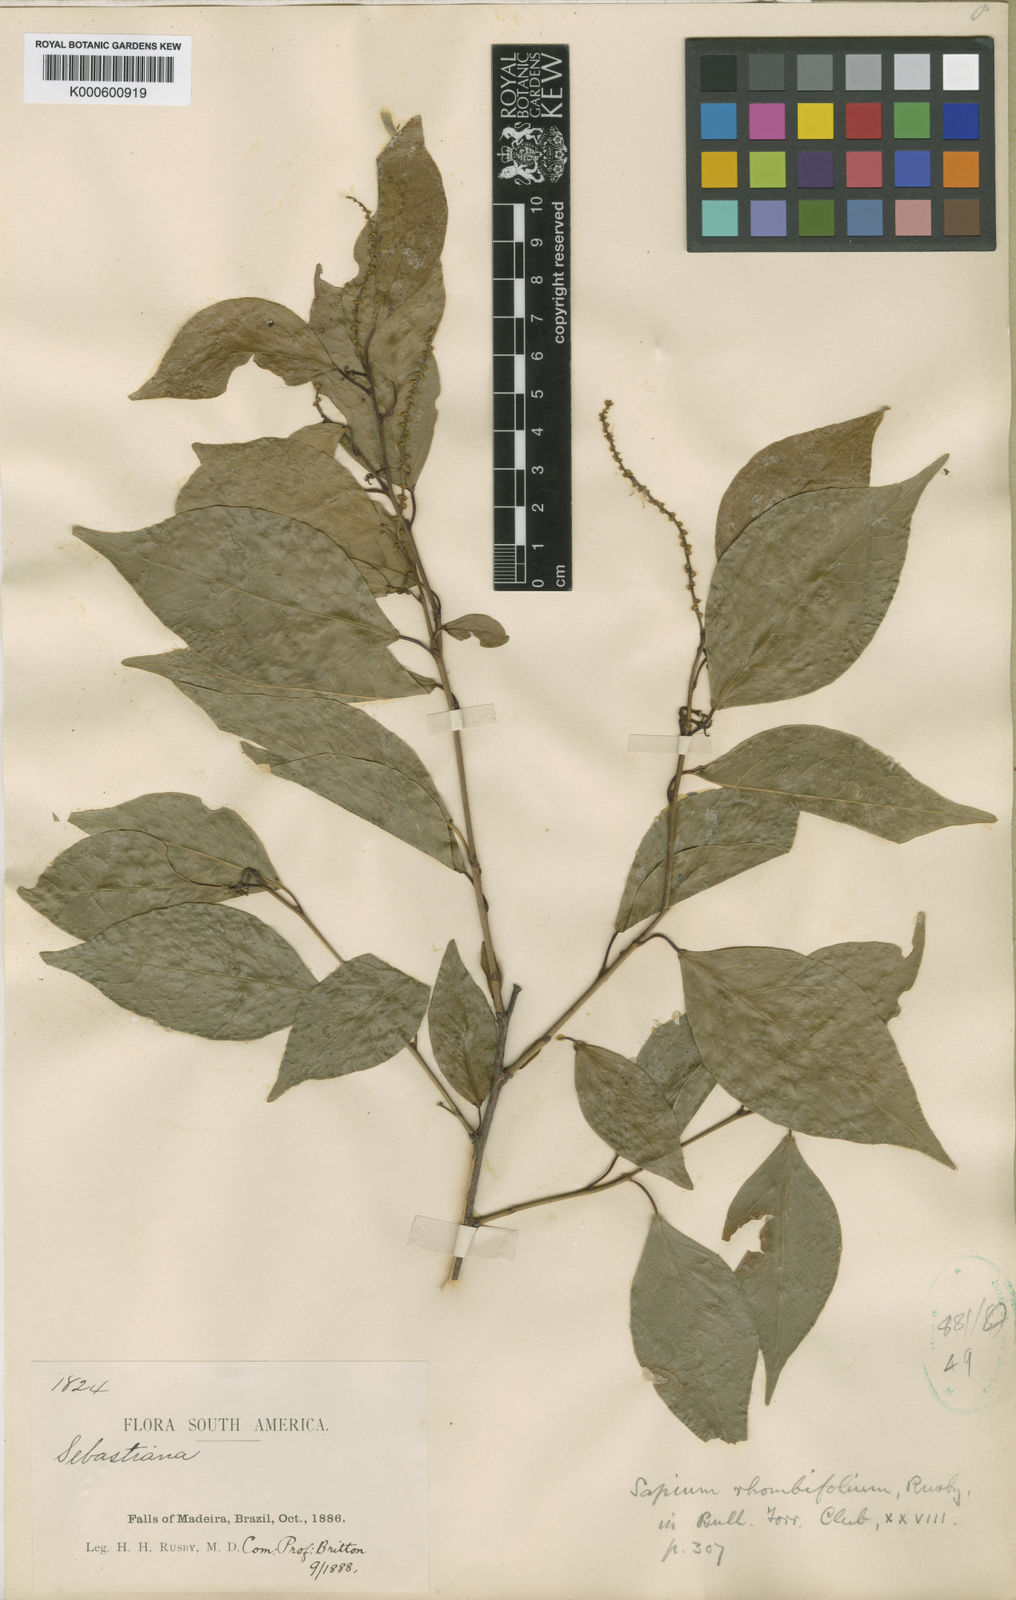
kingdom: Plantae
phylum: Tracheophyta
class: Magnoliopsida
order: Malpighiales
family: Euphorbiaceae
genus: Pleradenophora
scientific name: Pleradenophora membranifolia
